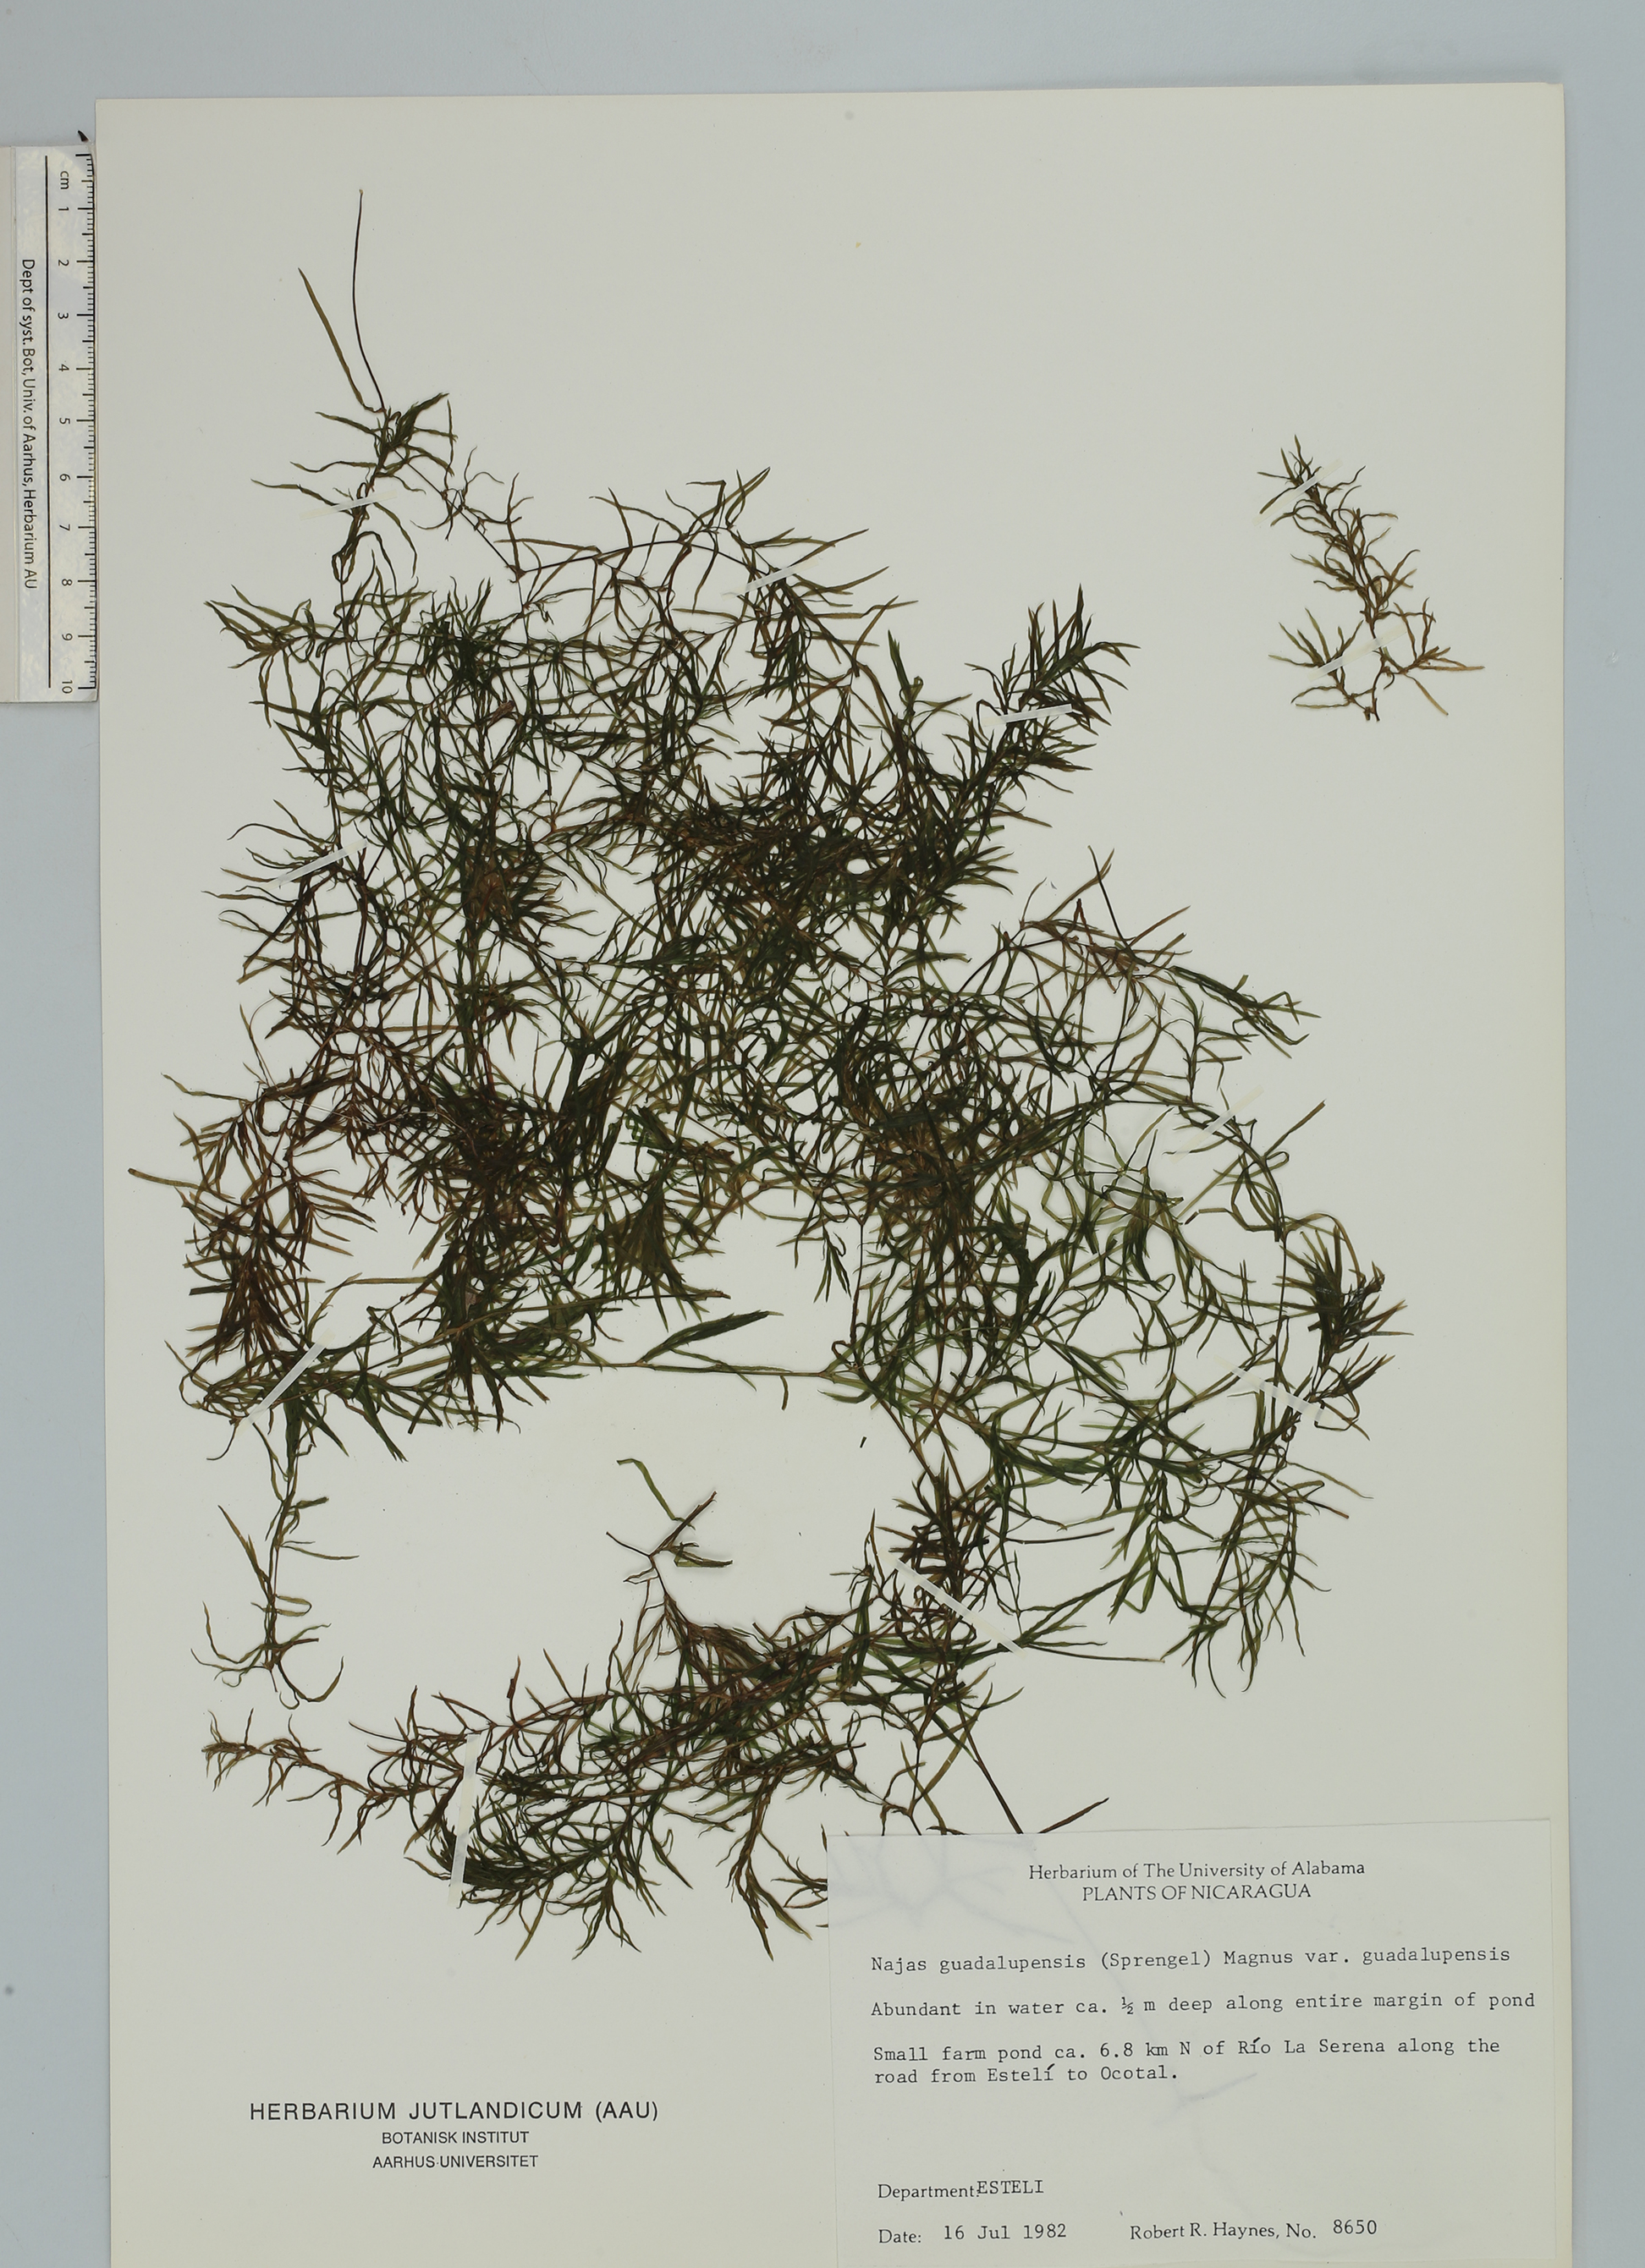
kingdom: Plantae
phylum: Tracheophyta
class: Liliopsida
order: Alismatales
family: Hydrocharitaceae
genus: Najas
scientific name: Najas guadalupensis
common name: Southern naiad
